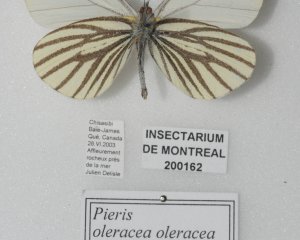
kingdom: Animalia
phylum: Arthropoda
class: Insecta
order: Lepidoptera
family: Pieridae
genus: Pieris
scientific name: Pieris oleracea
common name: Mustard White
